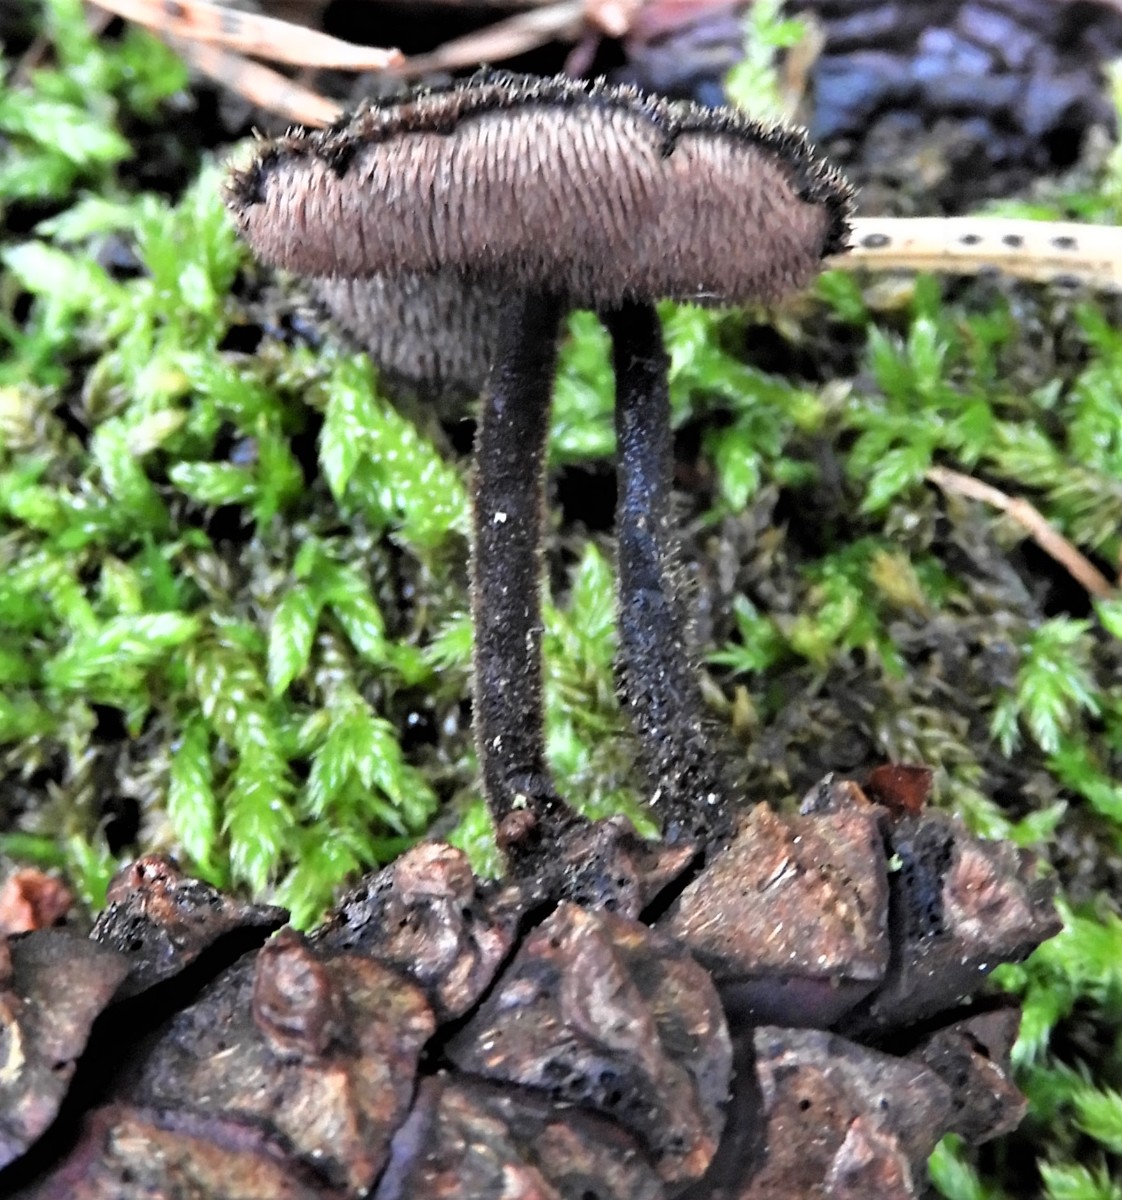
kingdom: Fungi
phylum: Basidiomycota
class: Agaricomycetes
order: Russulales
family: Auriscalpiaceae
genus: Auriscalpium
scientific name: Auriscalpium vulgare
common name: koglepigsvamp
